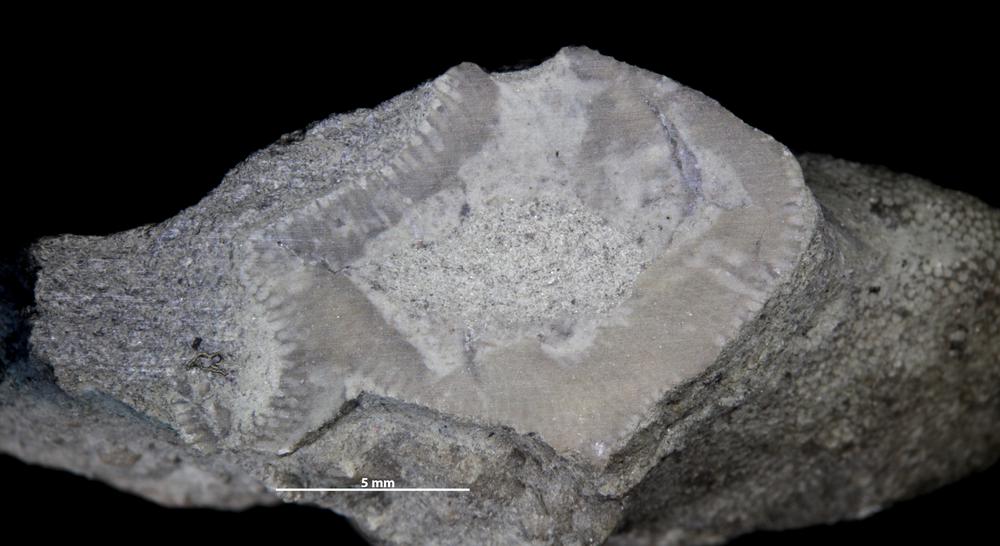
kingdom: Animalia
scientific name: Animalia
